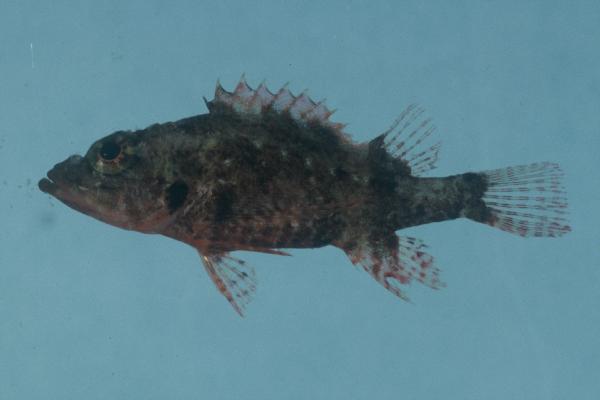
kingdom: Animalia
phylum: Chordata
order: Scorpaeniformes
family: Scorpaenidae
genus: Scorpaenodes
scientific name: Scorpaenodes minor
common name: Minor scorpionfish
